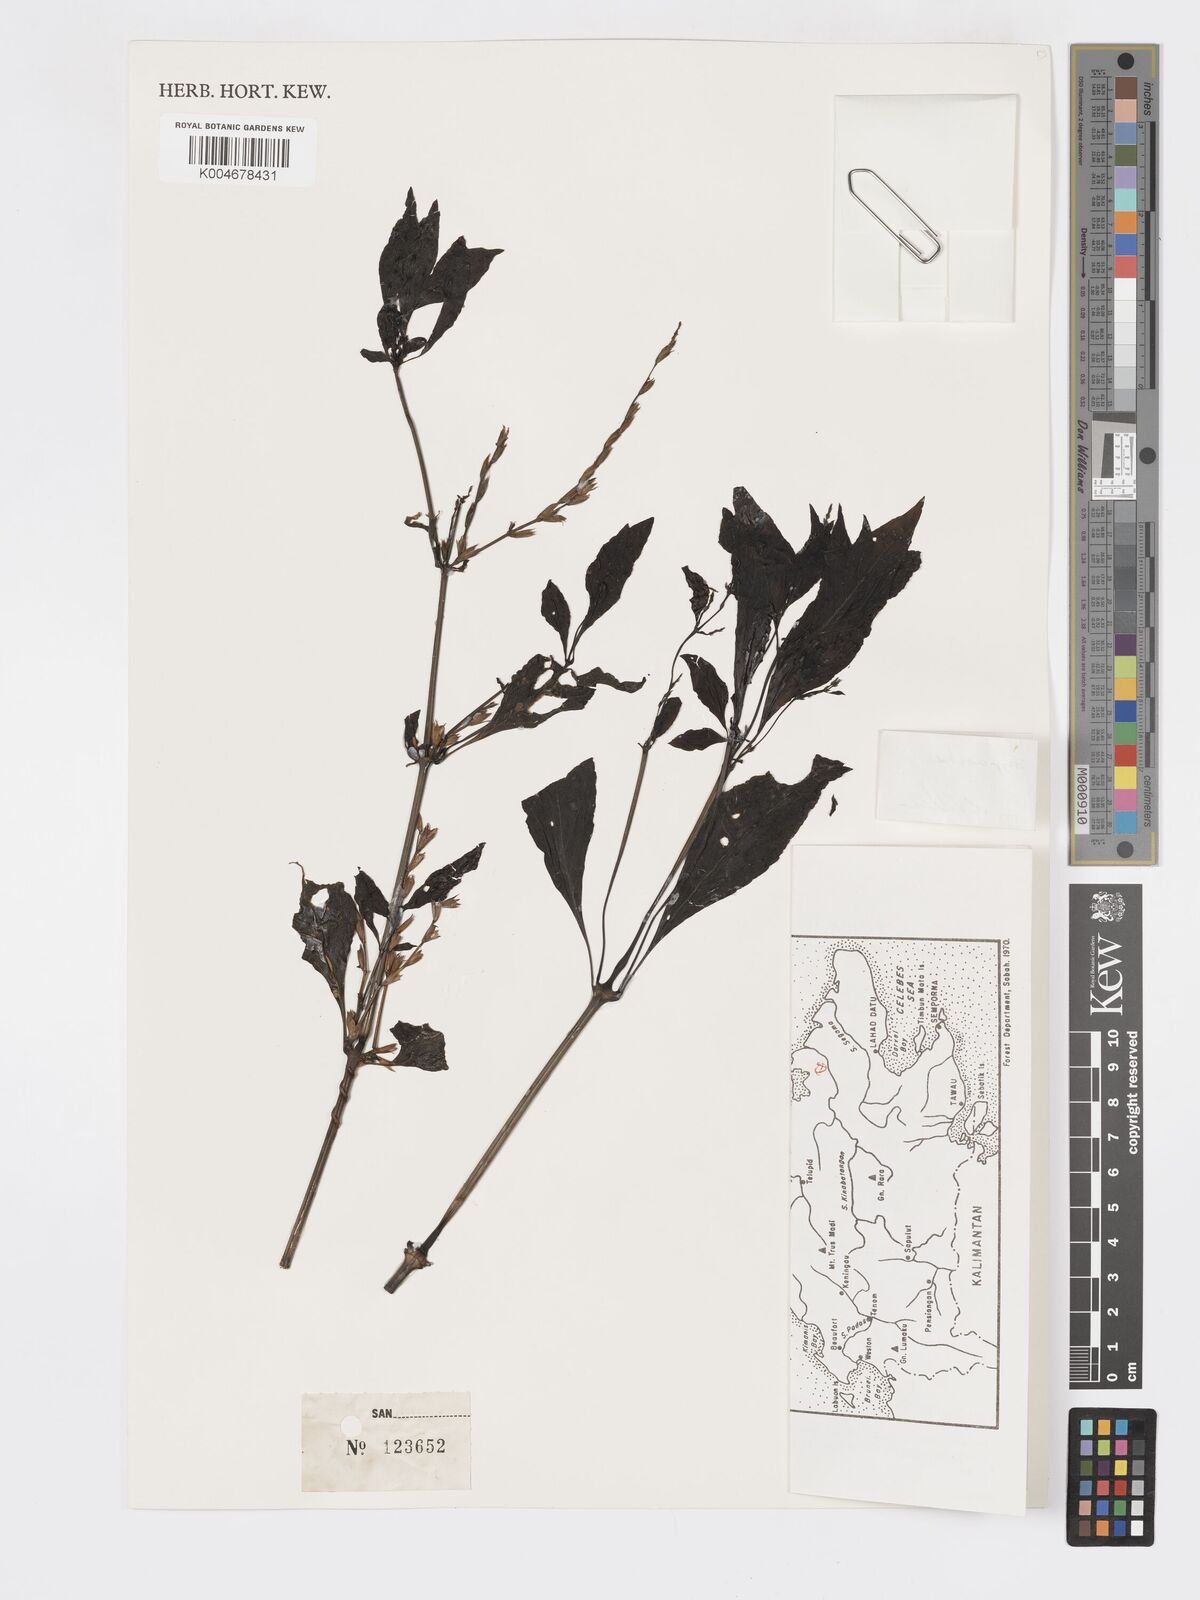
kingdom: Plantae
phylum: Tracheophyta
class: Magnoliopsida
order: Lamiales
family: Acanthaceae
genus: Hypoestes
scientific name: Hypoestes
